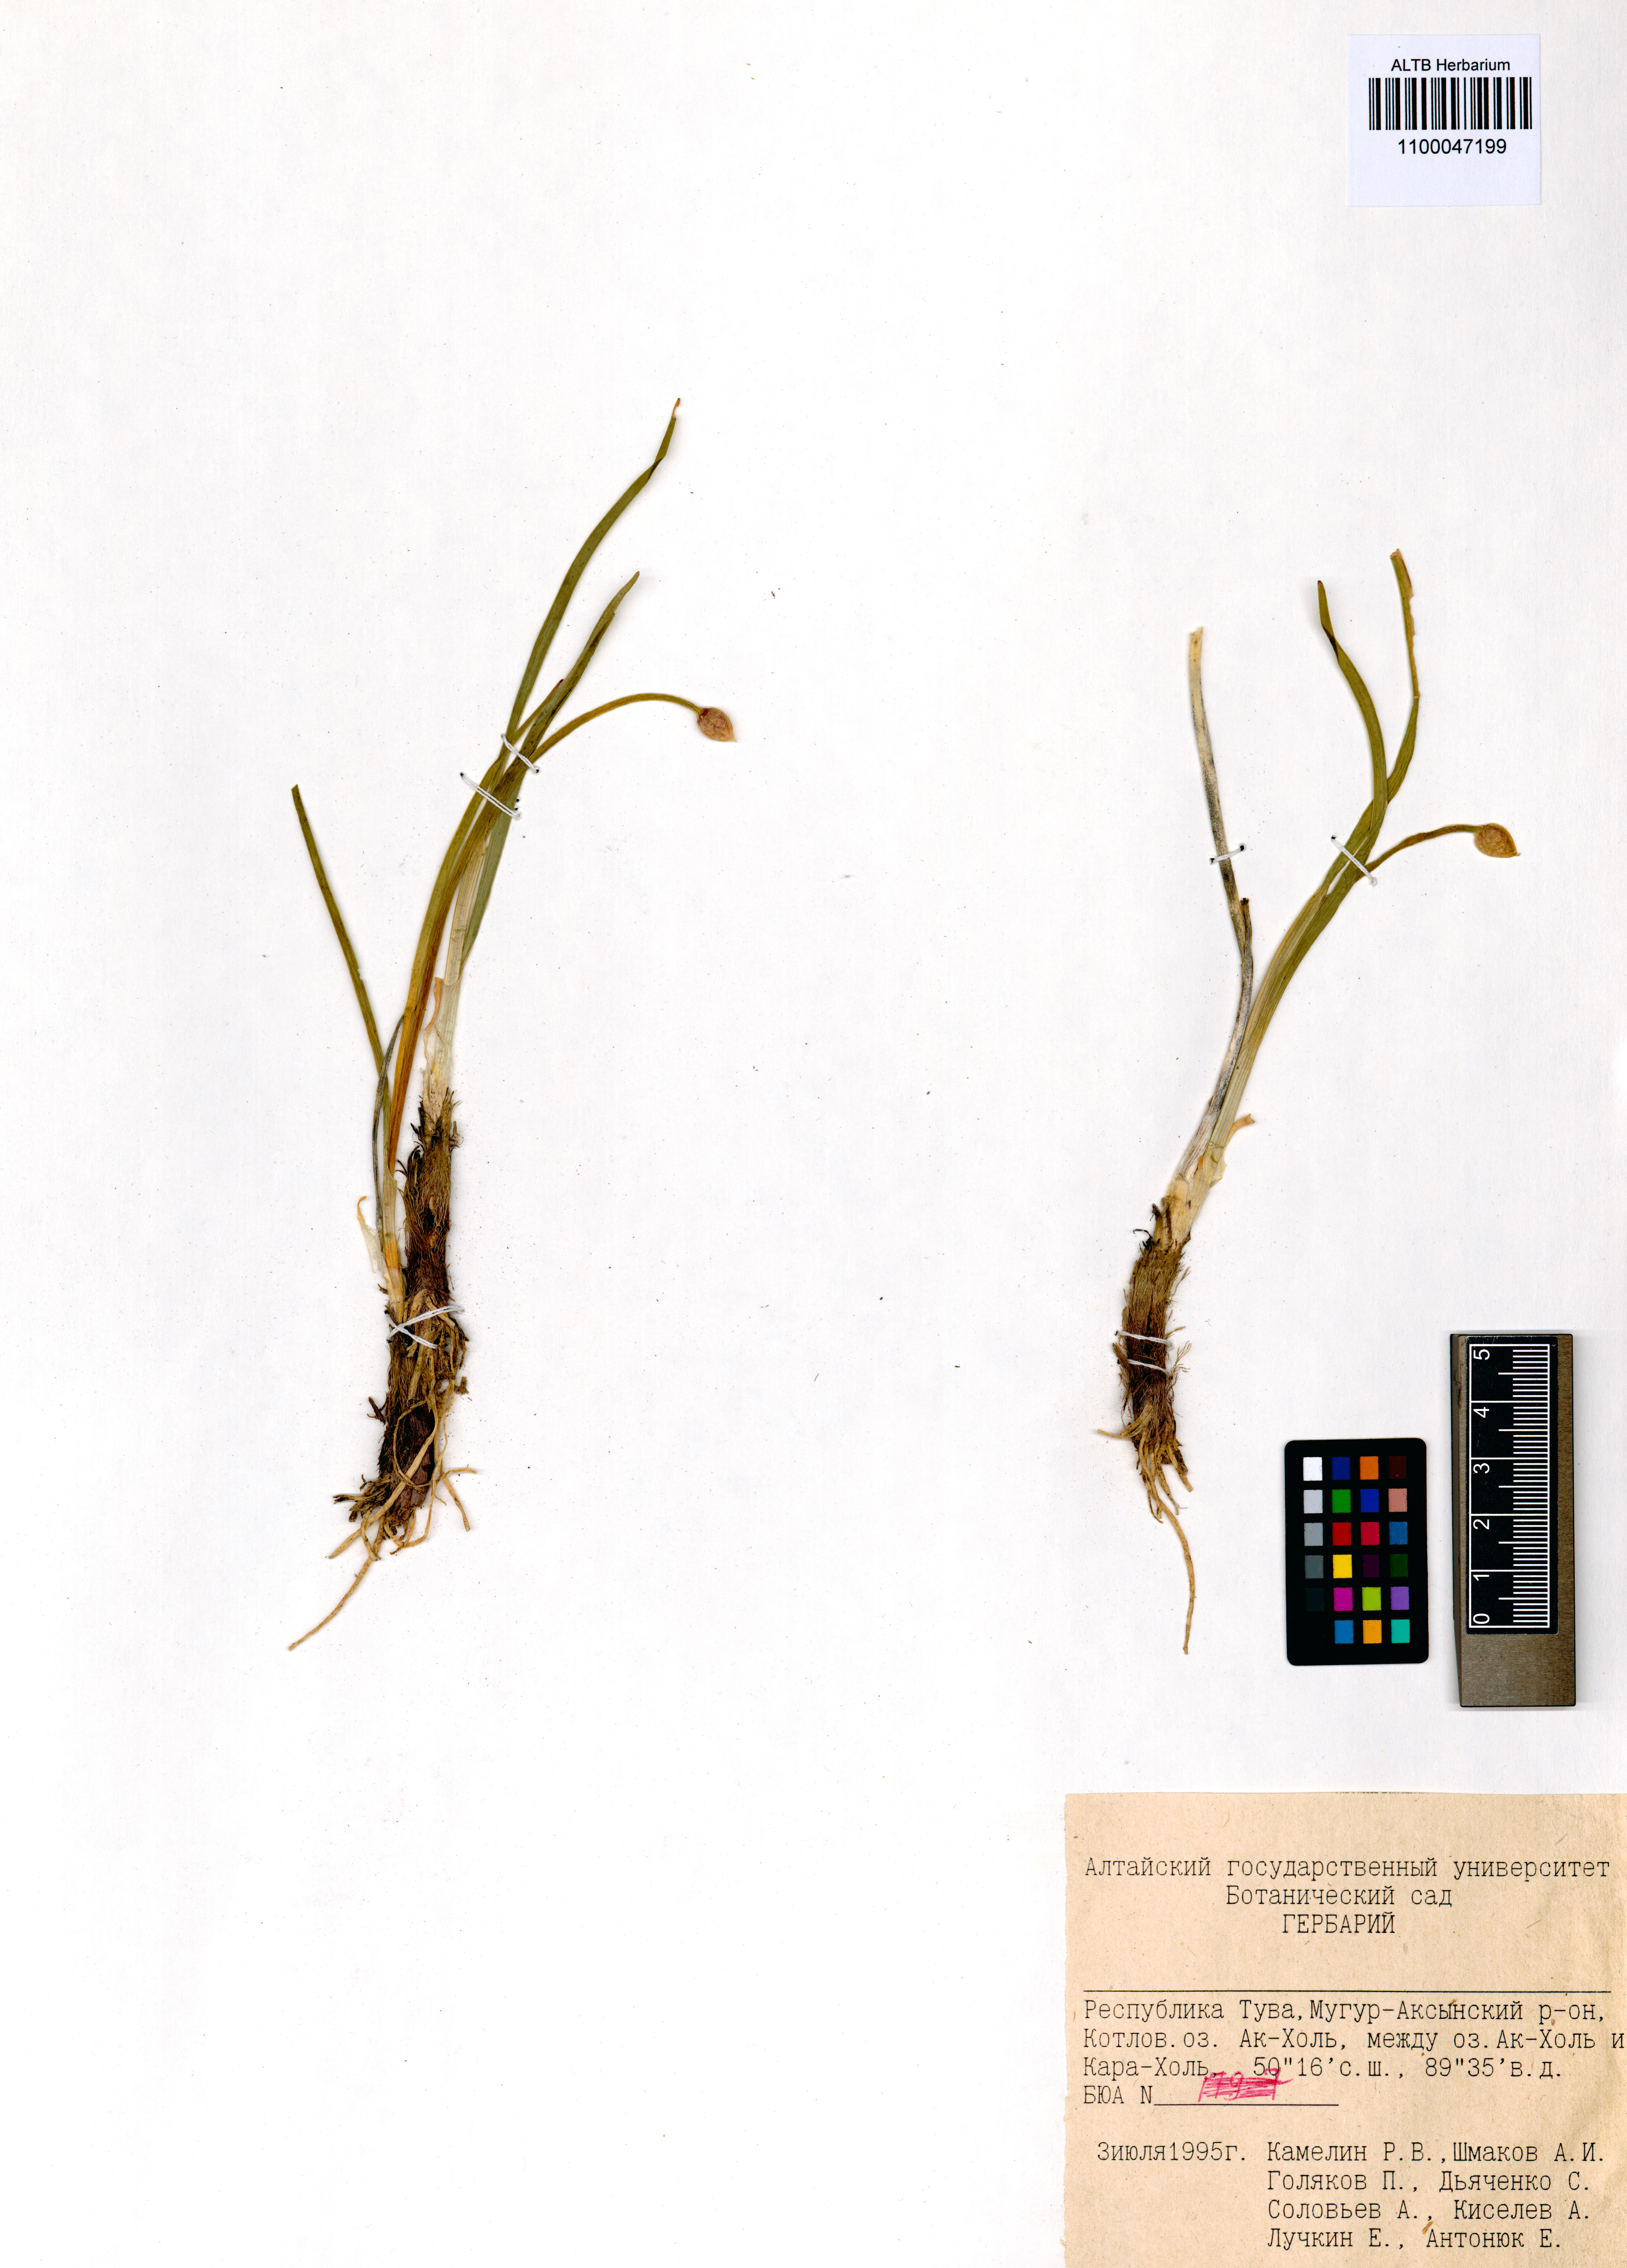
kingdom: Plantae
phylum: Tracheophyta
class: Liliopsida
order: Asparagales
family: Amaryllidaceae
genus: Allium
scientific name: Allium pumilum
